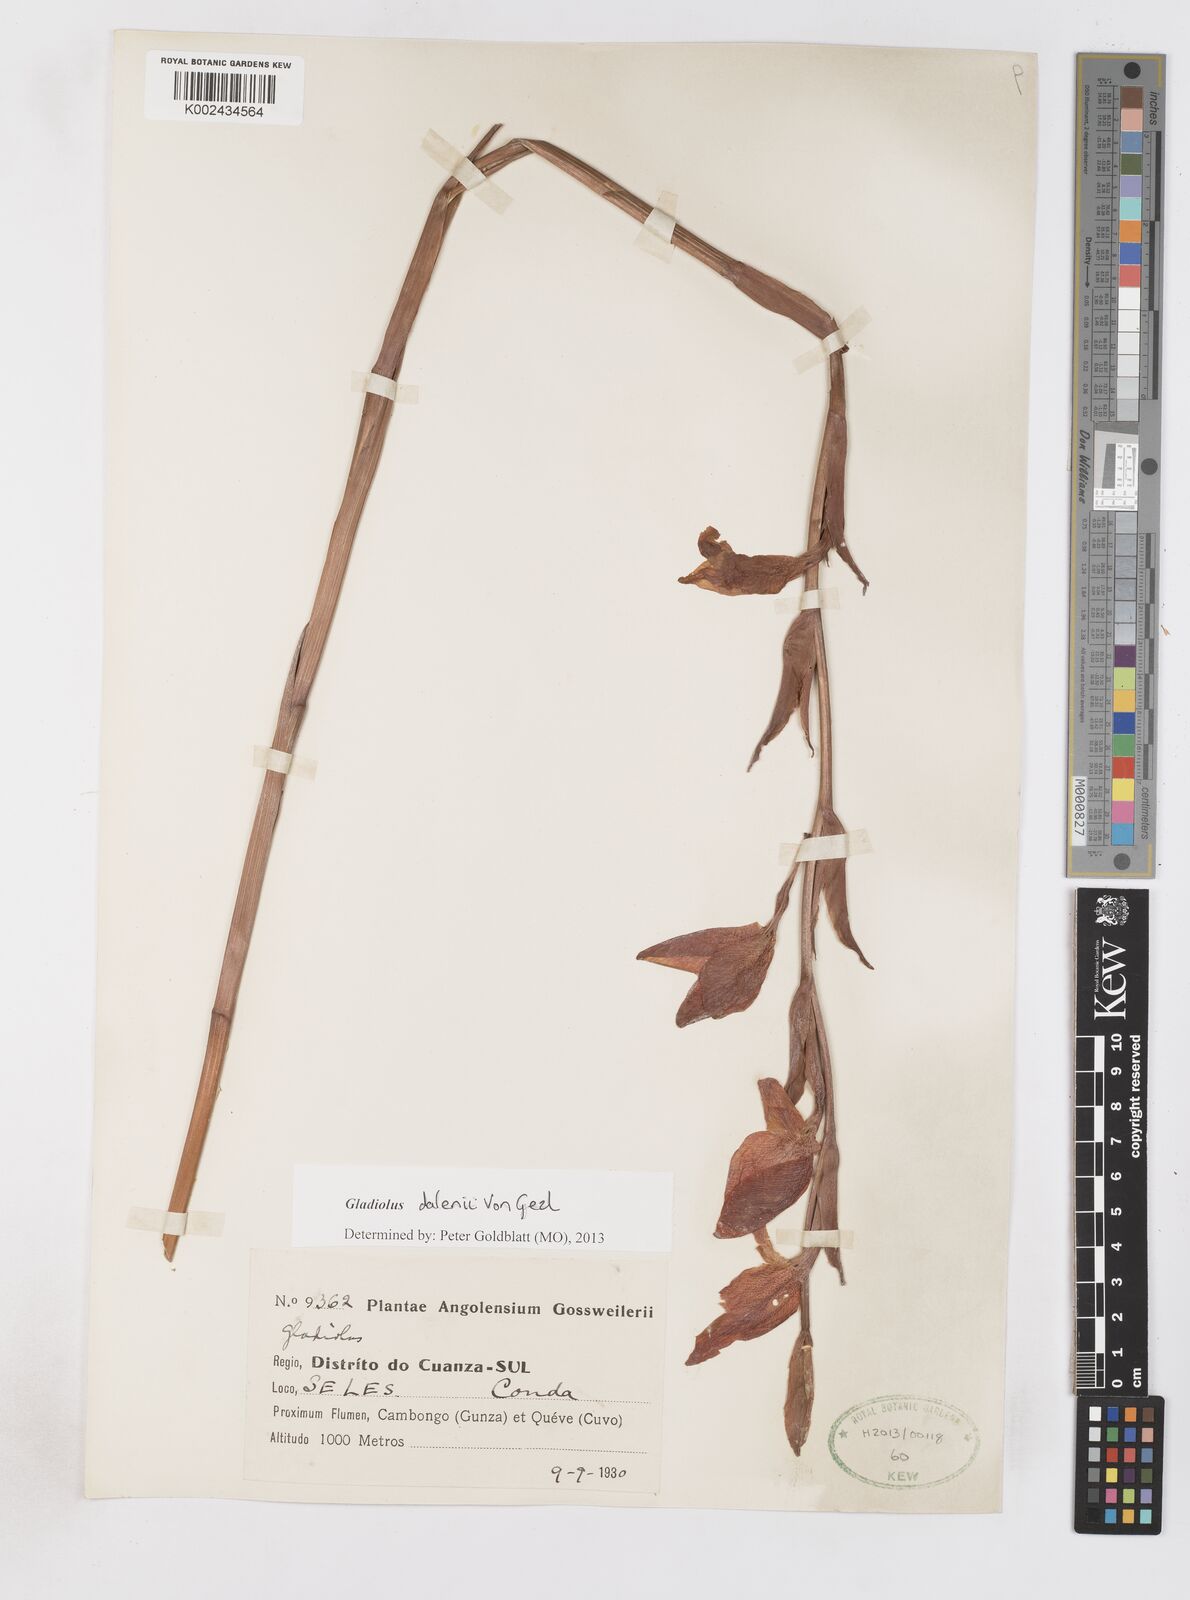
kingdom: Plantae
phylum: Tracheophyta
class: Liliopsida
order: Asparagales
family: Iridaceae
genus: Gladiolus
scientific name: Gladiolus dalenii
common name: Cornflag
